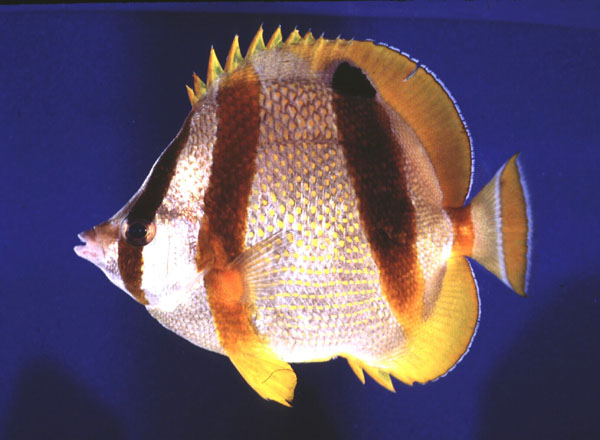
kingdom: Animalia
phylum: Chordata
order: Perciformes
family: Chaetodontidae
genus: Chaetodon
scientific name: Chaetodon marleyi
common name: Doubledash butterflyfish
